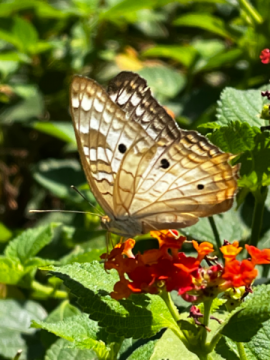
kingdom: Animalia
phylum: Arthropoda
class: Insecta
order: Lepidoptera
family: Nymphalidae
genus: Anartia
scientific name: Anartia jatrophae
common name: White Peacock
